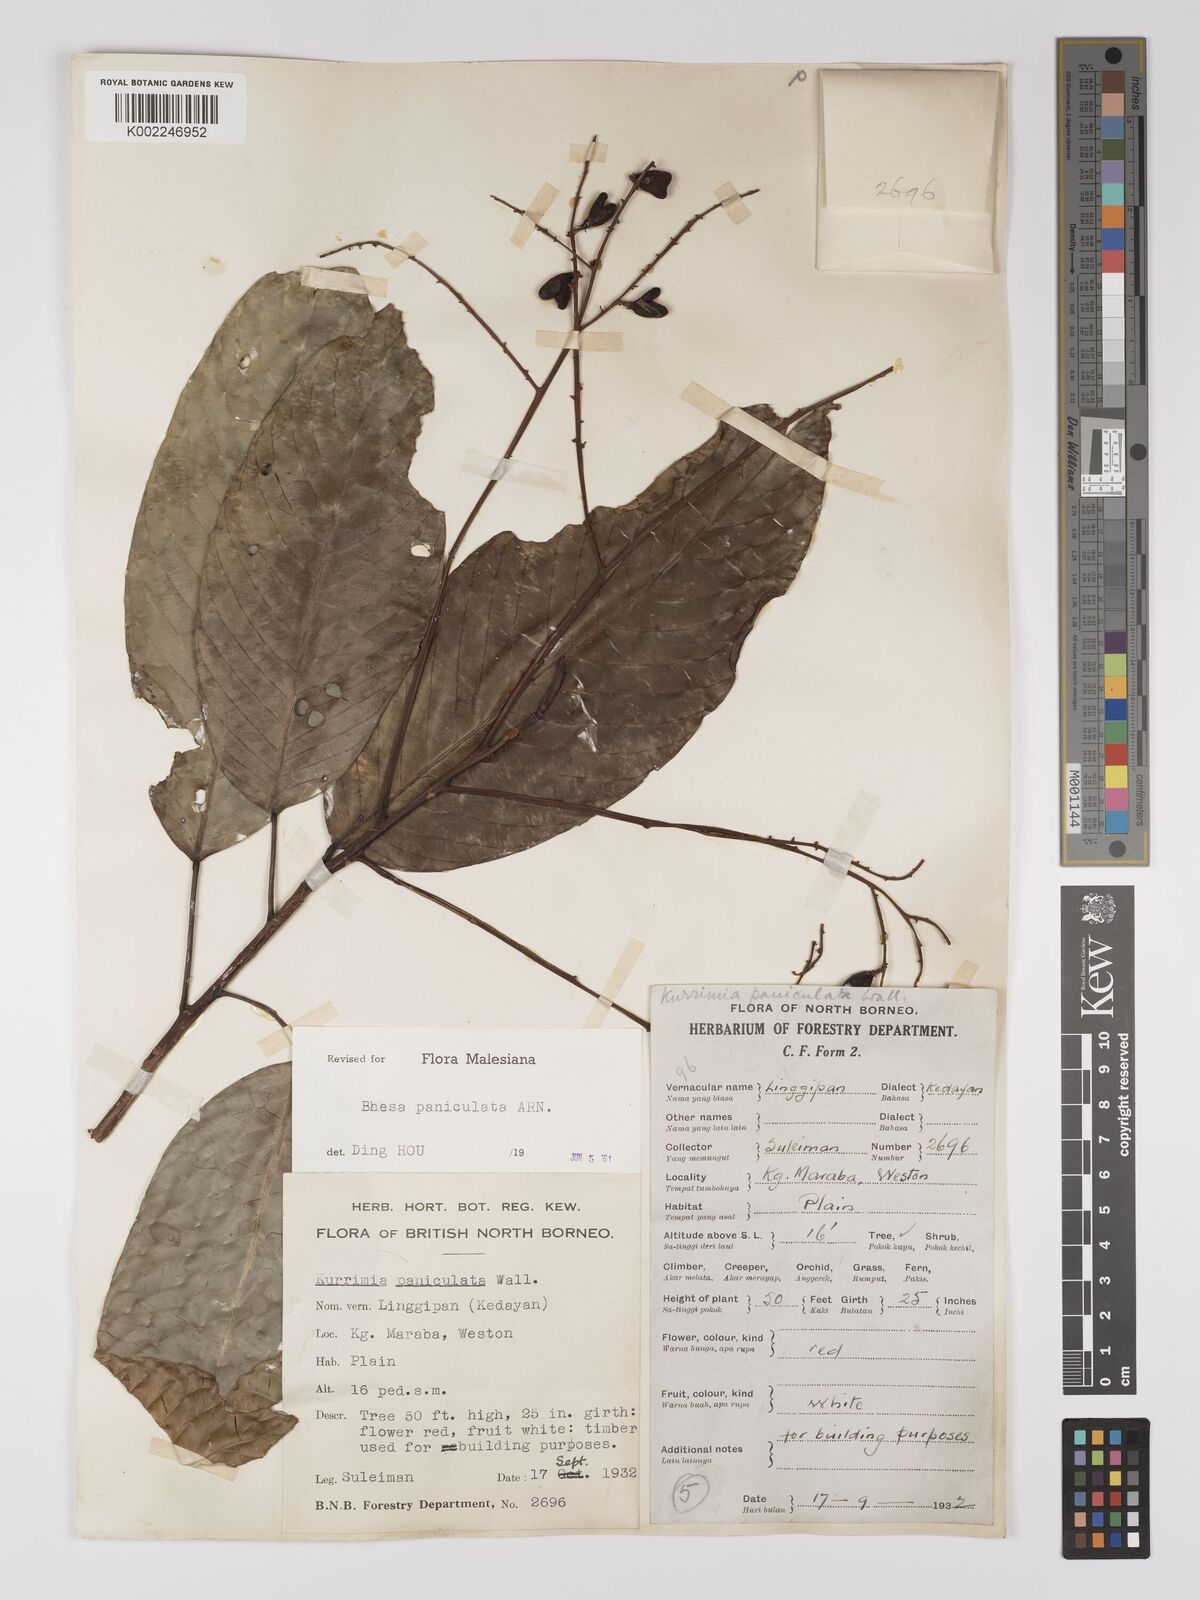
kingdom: Plantae
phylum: Tracheophyta
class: Magnoliopsida
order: Malpighiales
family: Centroplacaceae
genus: Bhesa
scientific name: Bhesa paniculata
